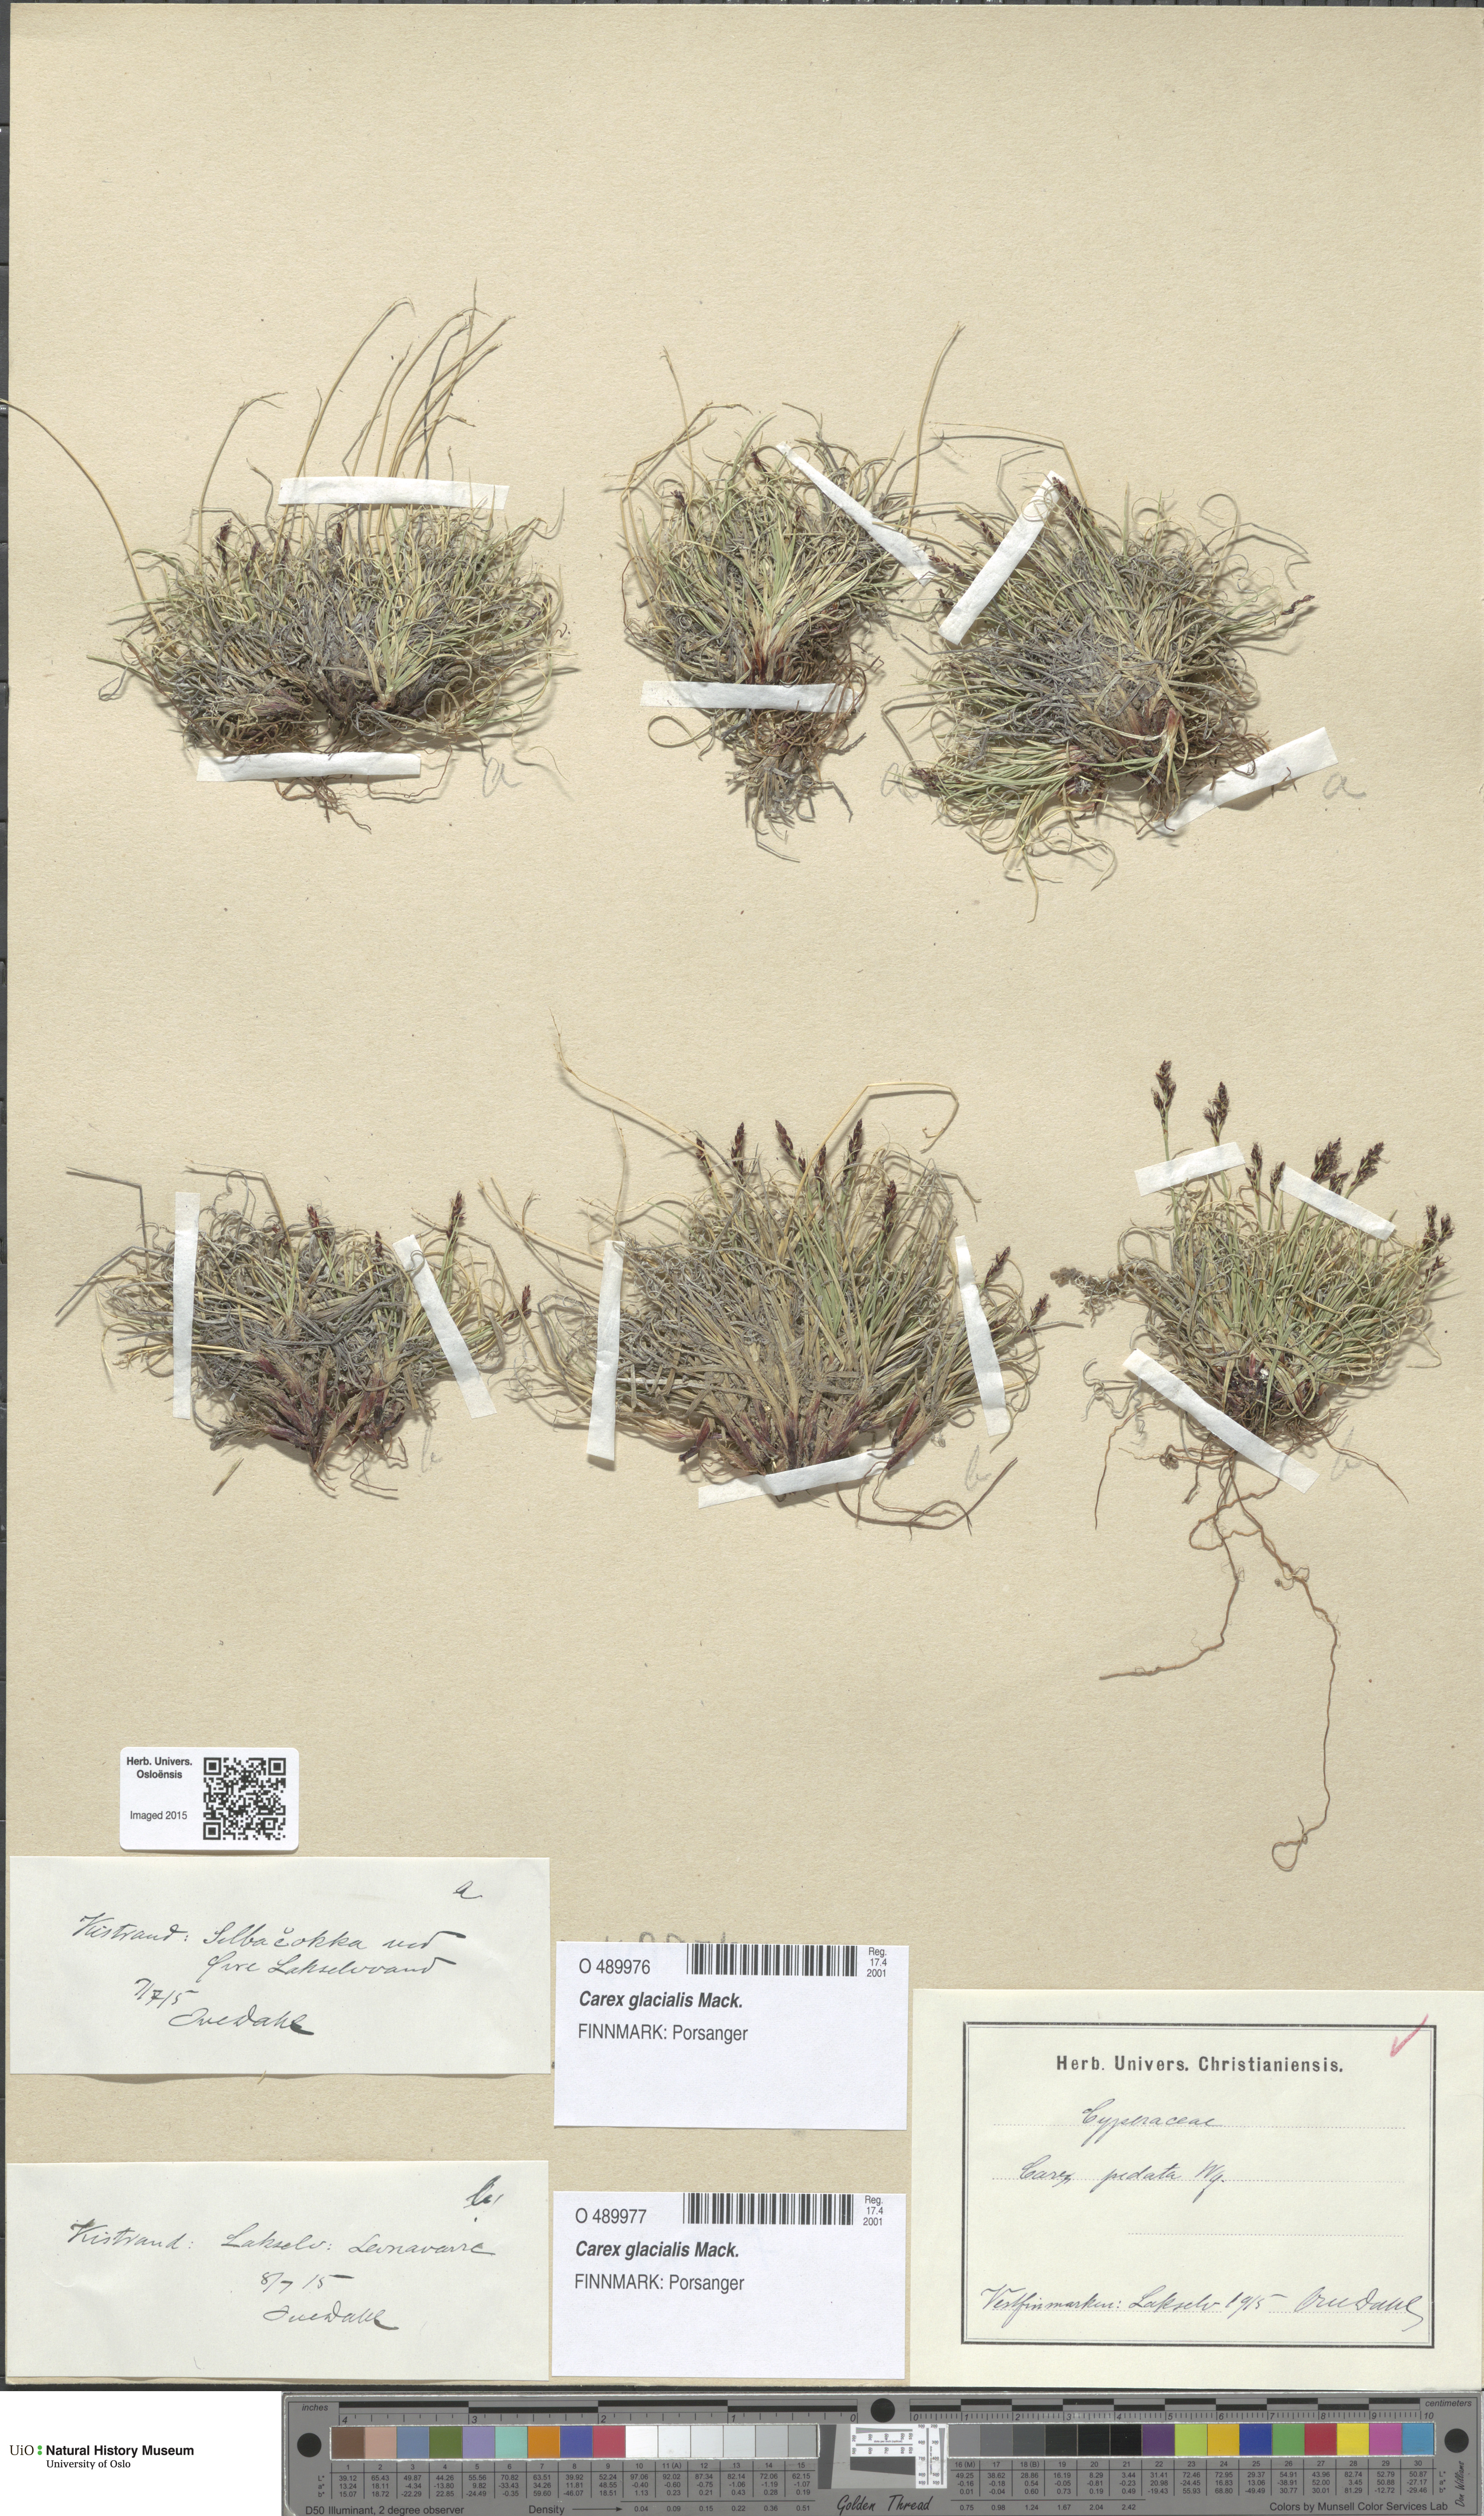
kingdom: Plantae
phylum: Tracheophyta
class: Liliopsida
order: Poales
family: Cyperaceae
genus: Carex
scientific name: Carex glacialis
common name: Newfoundland sedge
